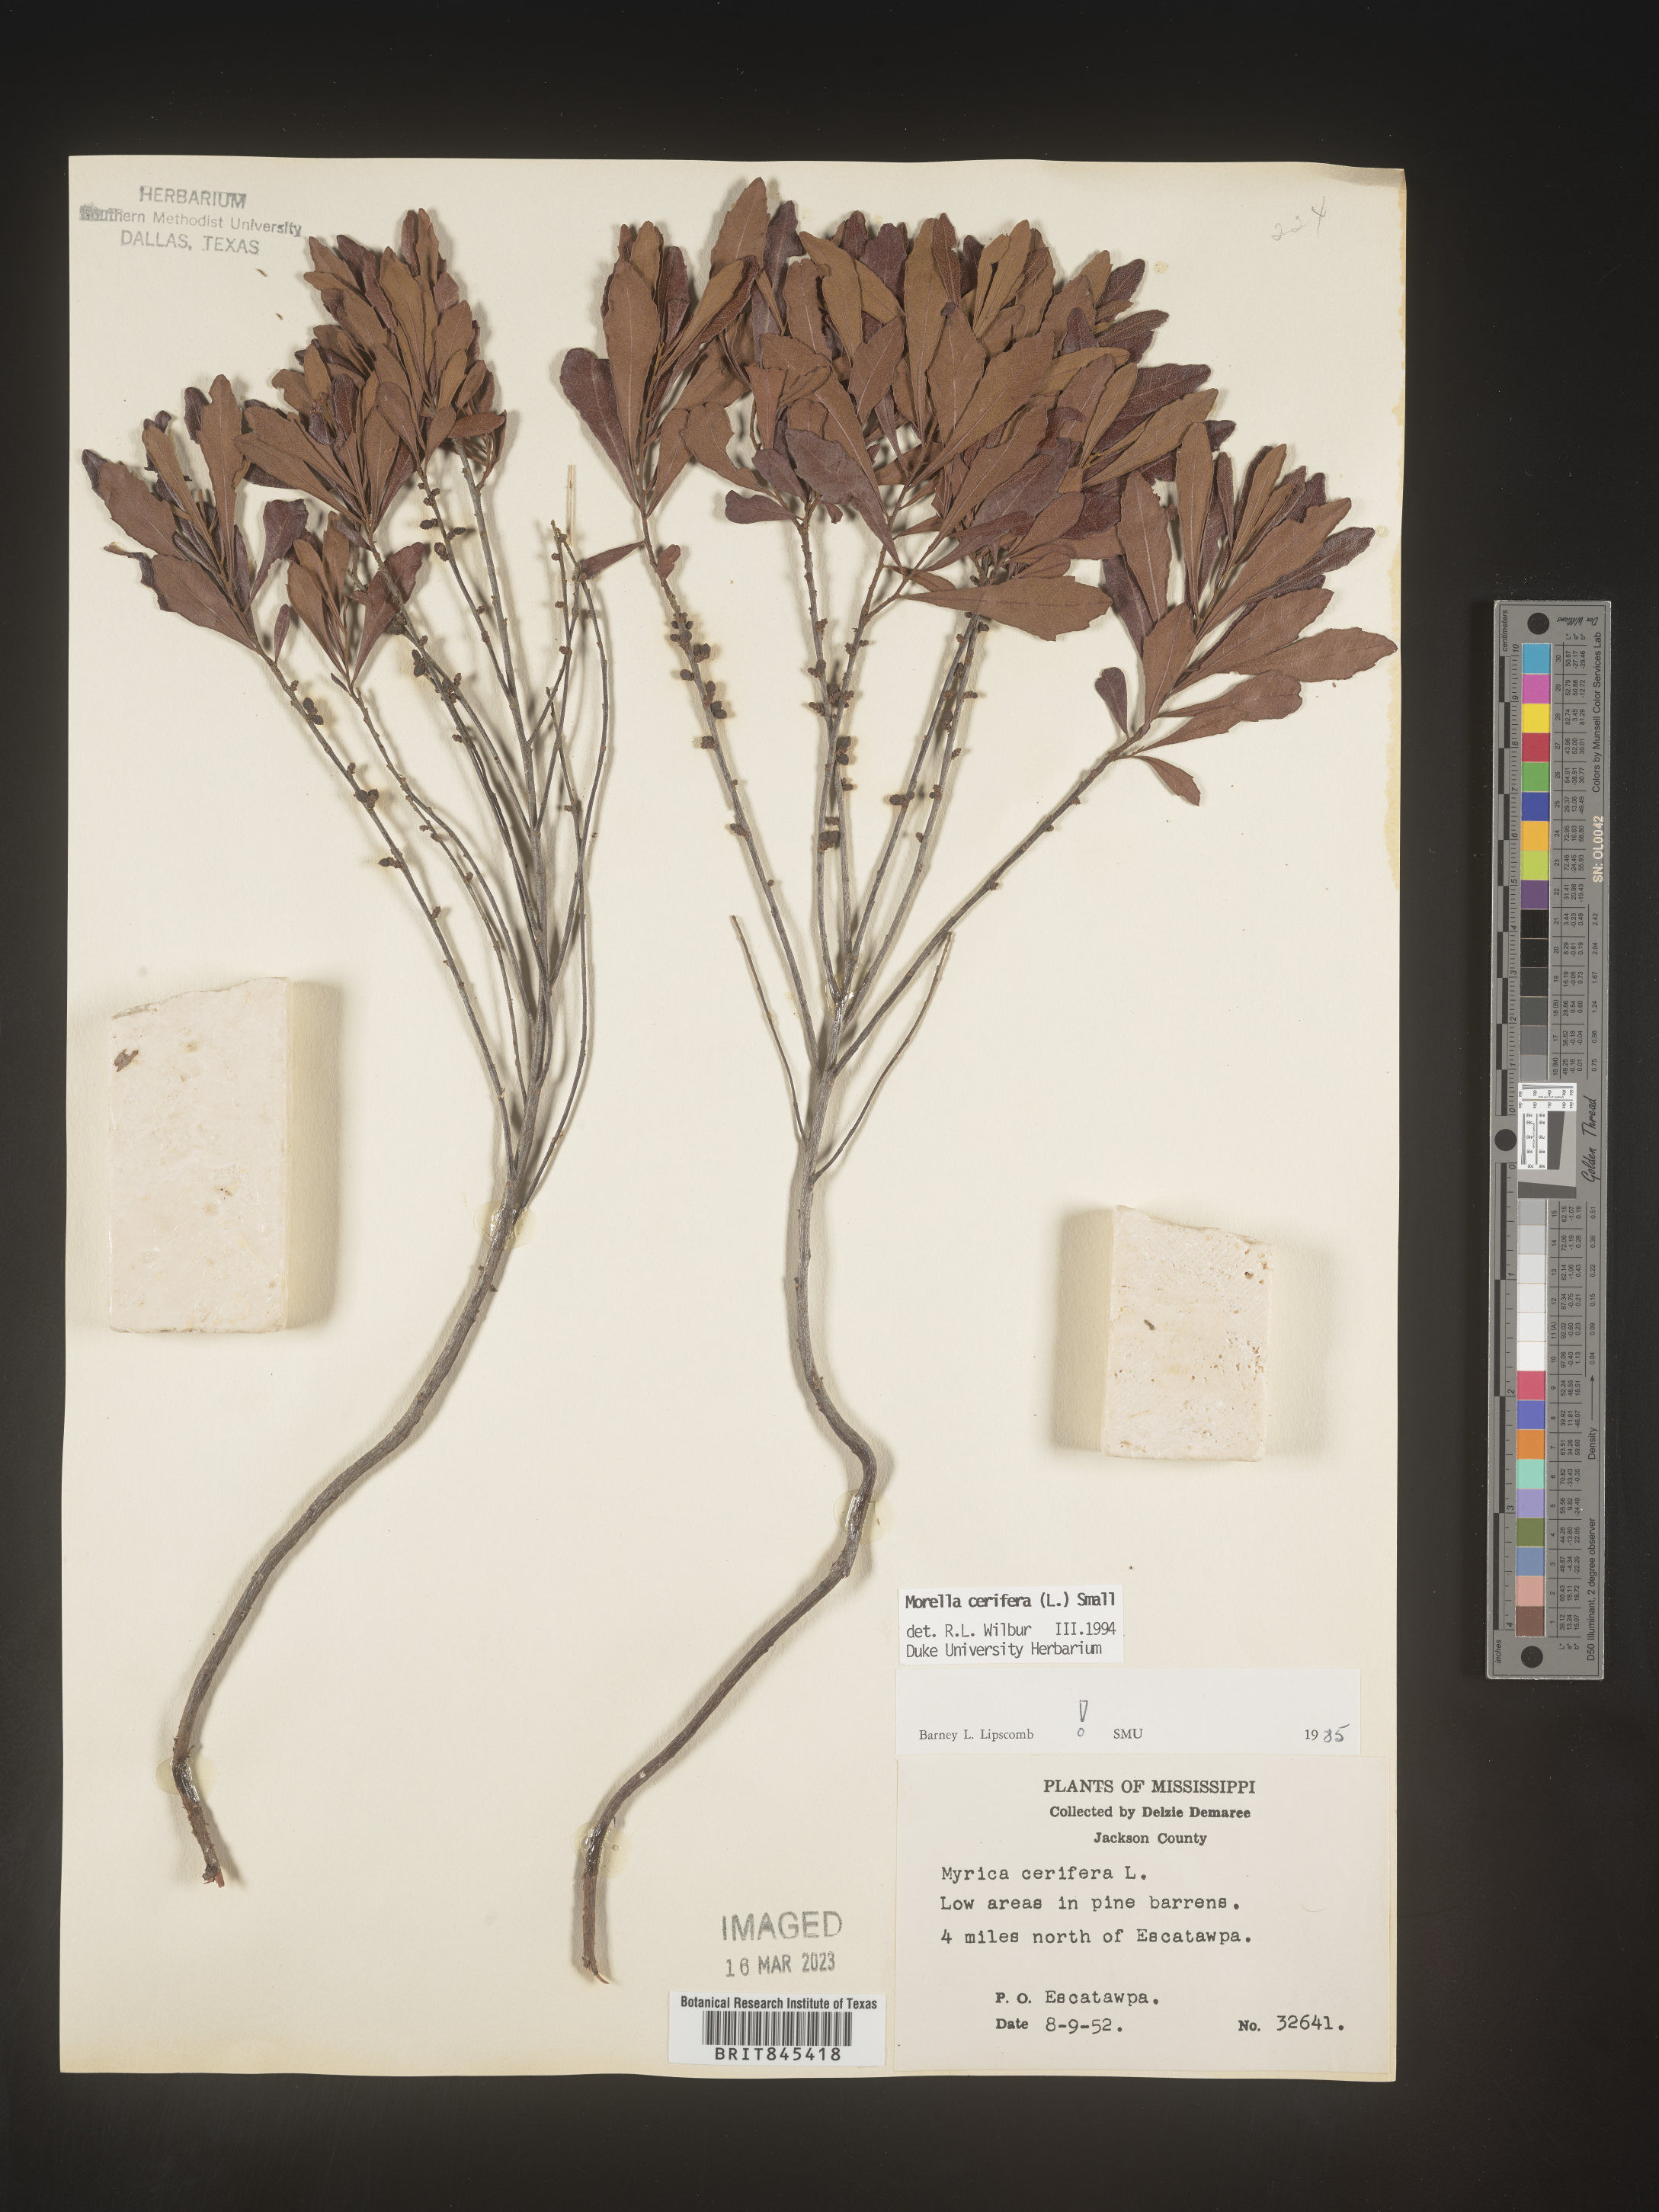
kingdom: Plantae
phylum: Tracheophyta
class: Magnoliopsida
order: Fagales
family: Myricaceae
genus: Morella
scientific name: Morella cerifera
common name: Wax myrtle
